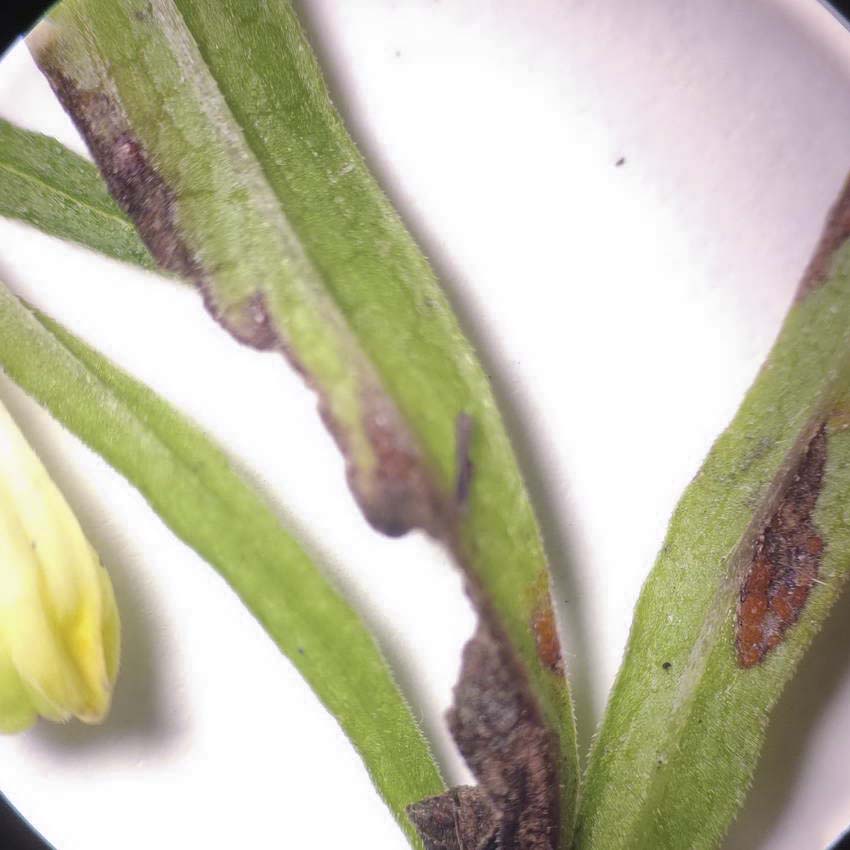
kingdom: Fungi
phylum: Basidiomycota
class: Pucciniomycetes
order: Pucciniales
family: Coleosporiaceae
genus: Coleosporium
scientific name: Coleosporium tussilaginis
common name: almindelig fyrrenålerust
